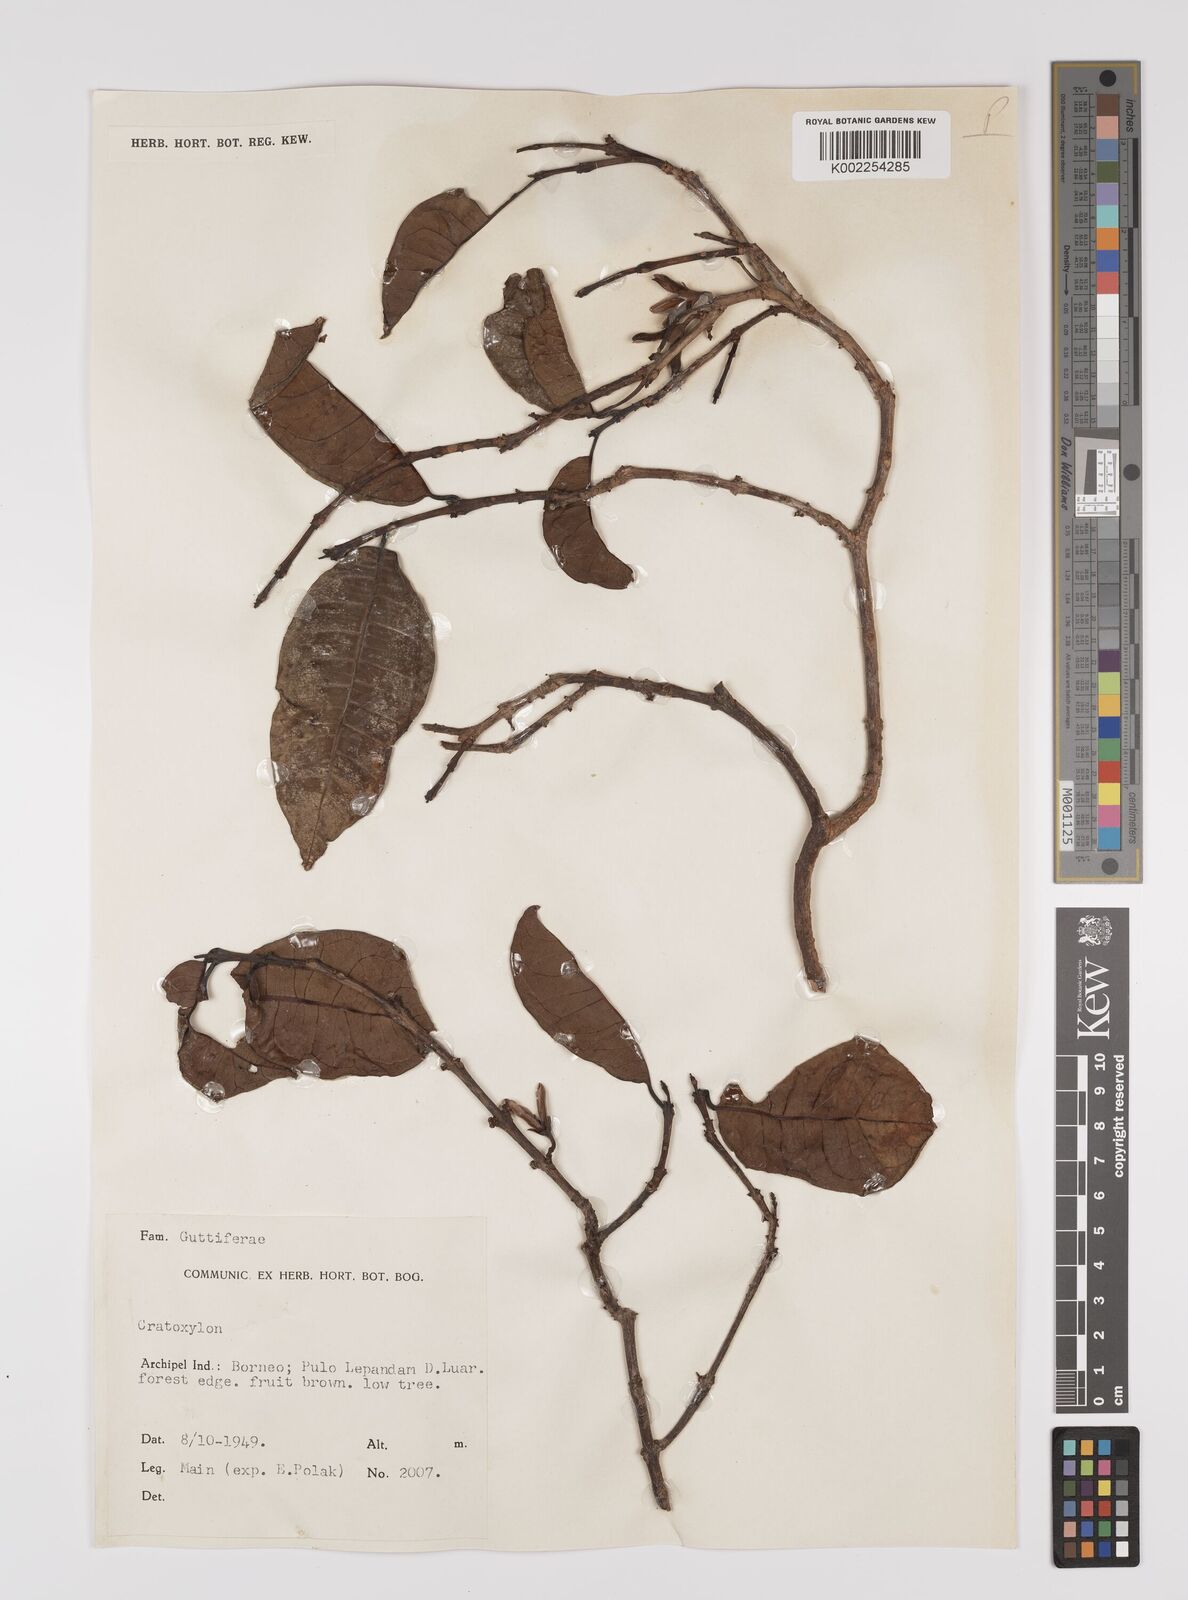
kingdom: Plantae
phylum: Tracheophyta
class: Magnoliopsida
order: Malpighiales
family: Hypericaceae
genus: Cratoxylum
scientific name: Cratoxylum
